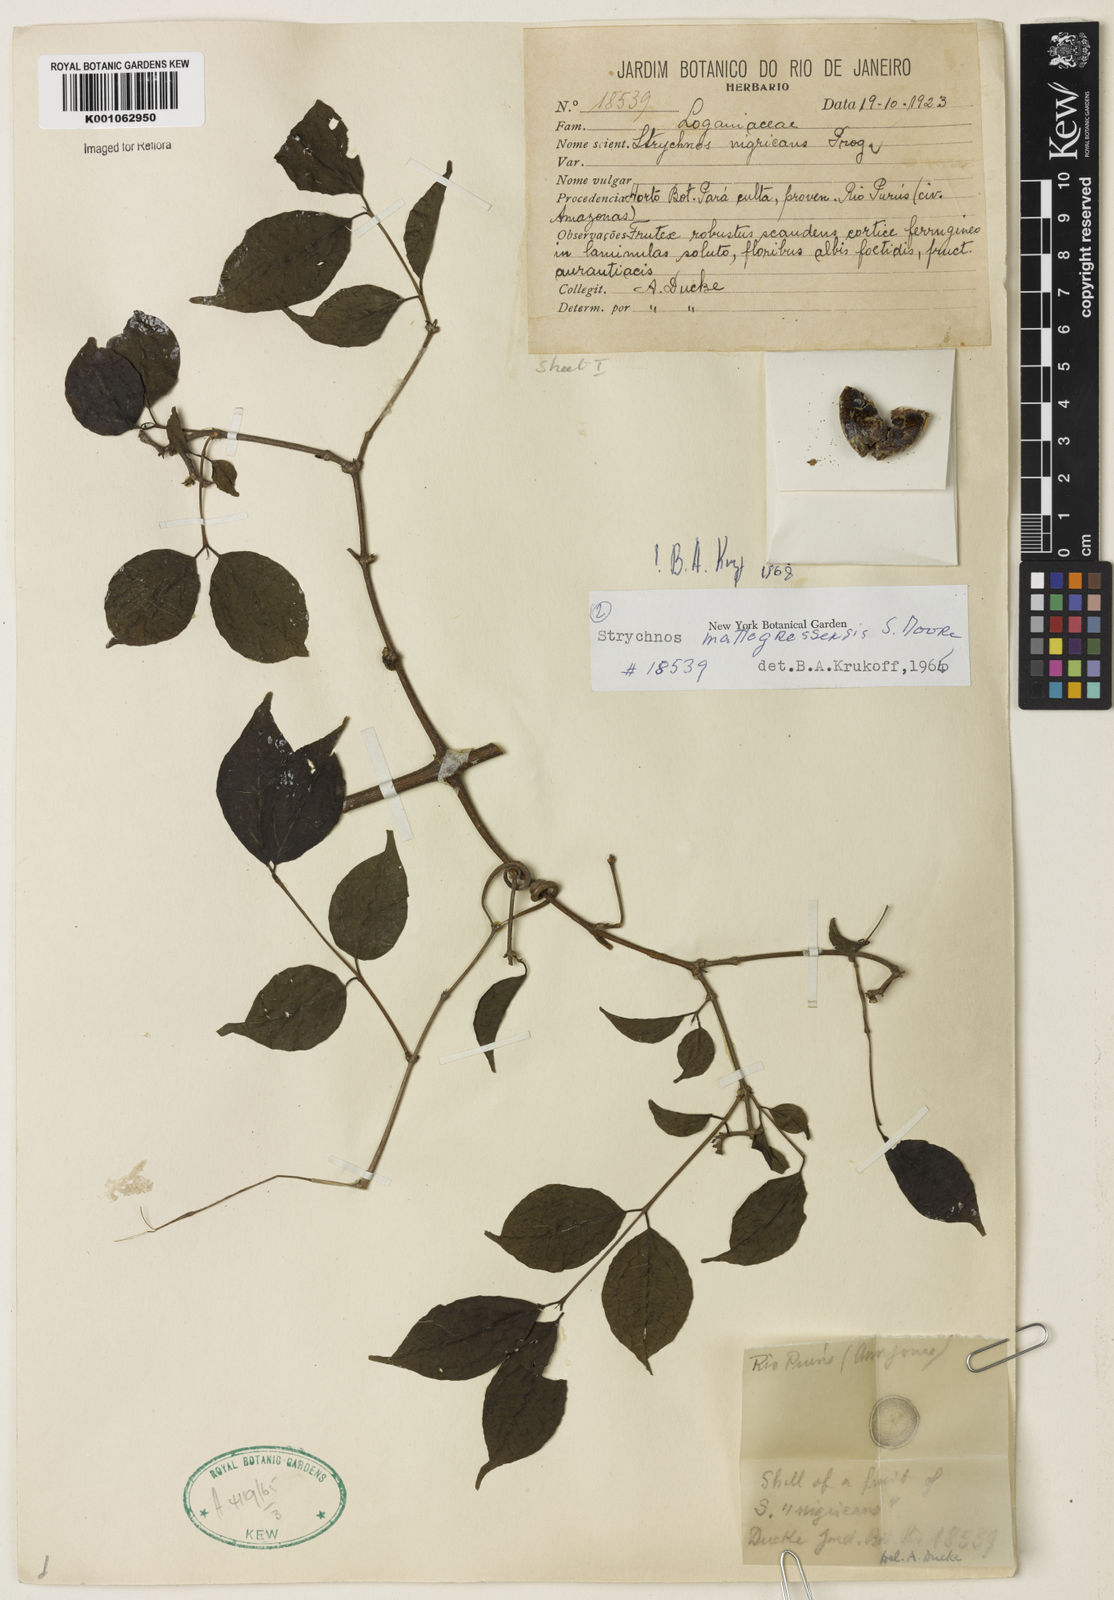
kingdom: Plantae
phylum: Tracheophyta
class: Magnoliopsida
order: Gentianales
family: Loganiaceae
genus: Strychnos
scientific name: Strychnos mattogrossensis
